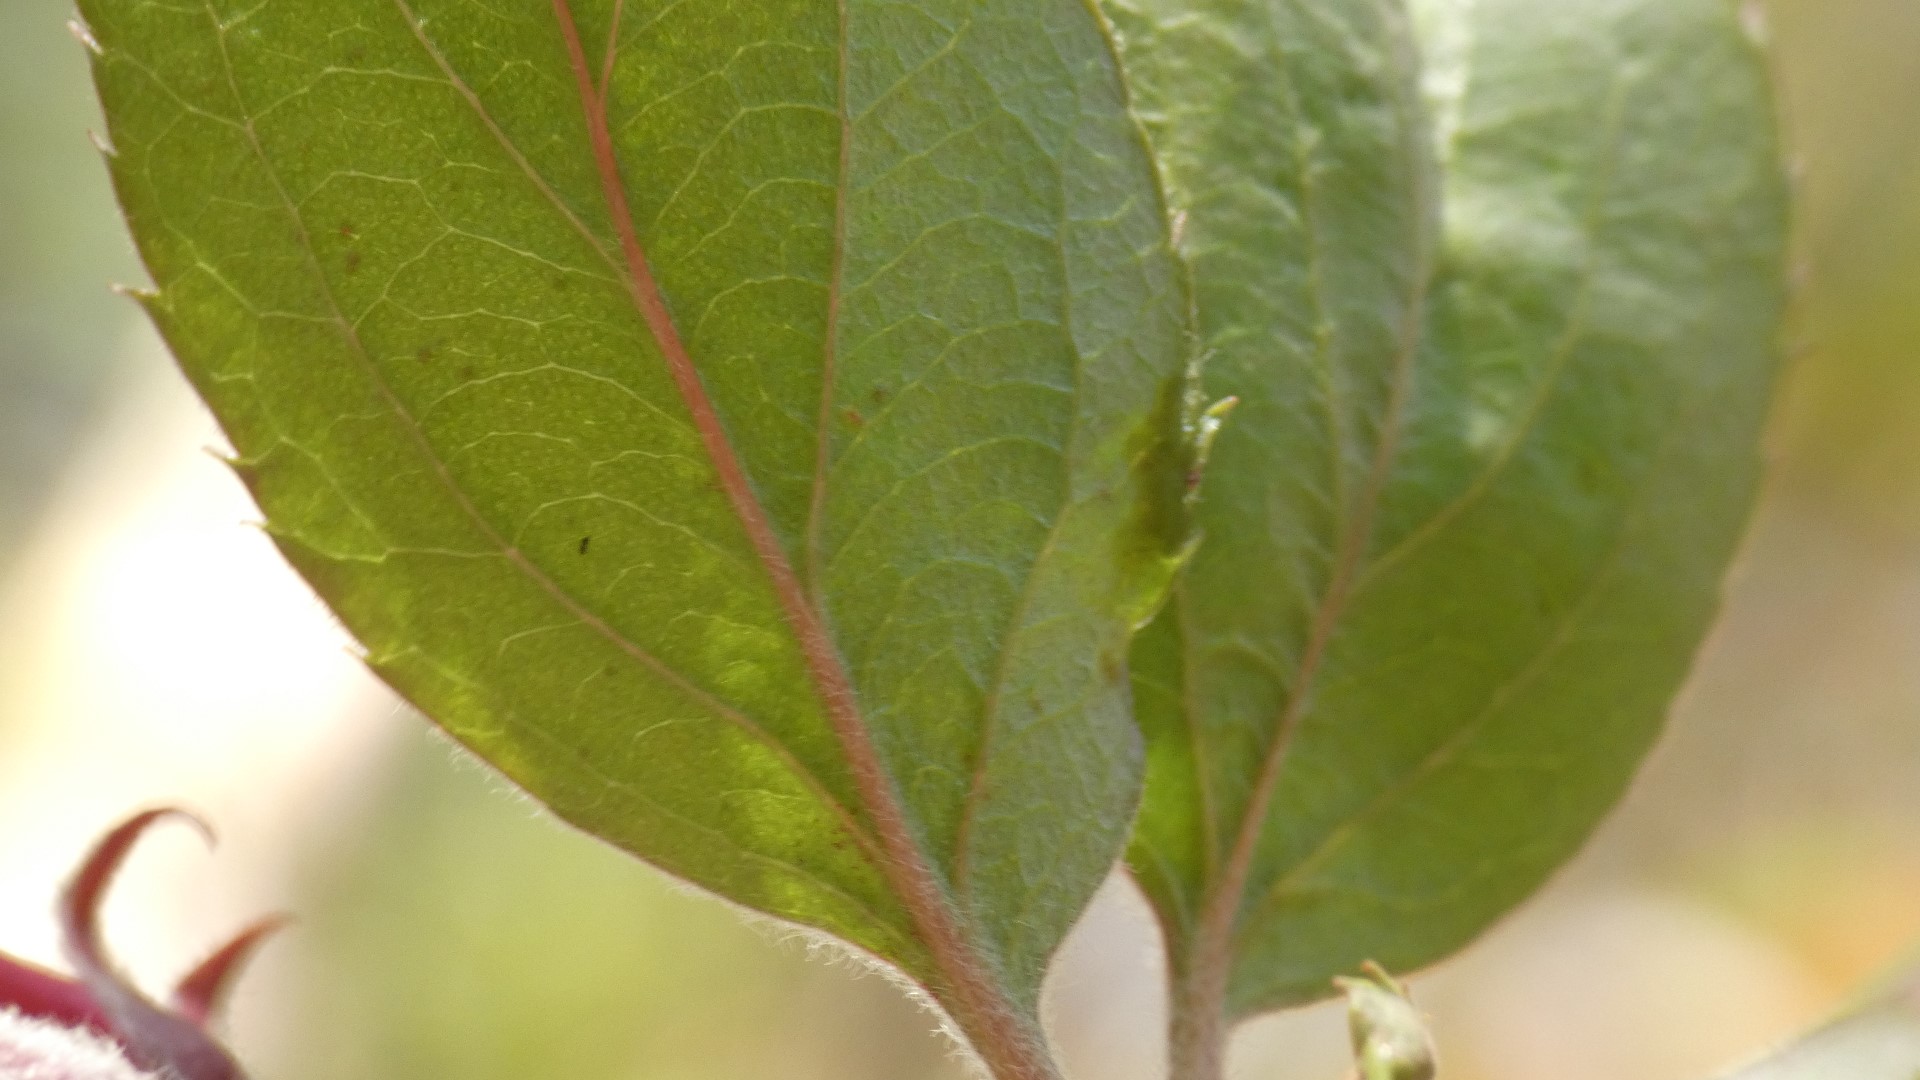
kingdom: Plantae
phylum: Tracheophyta
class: Magnoliopsida
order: Rosales
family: Rosaceae
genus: Malus
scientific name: Malus purpurea
